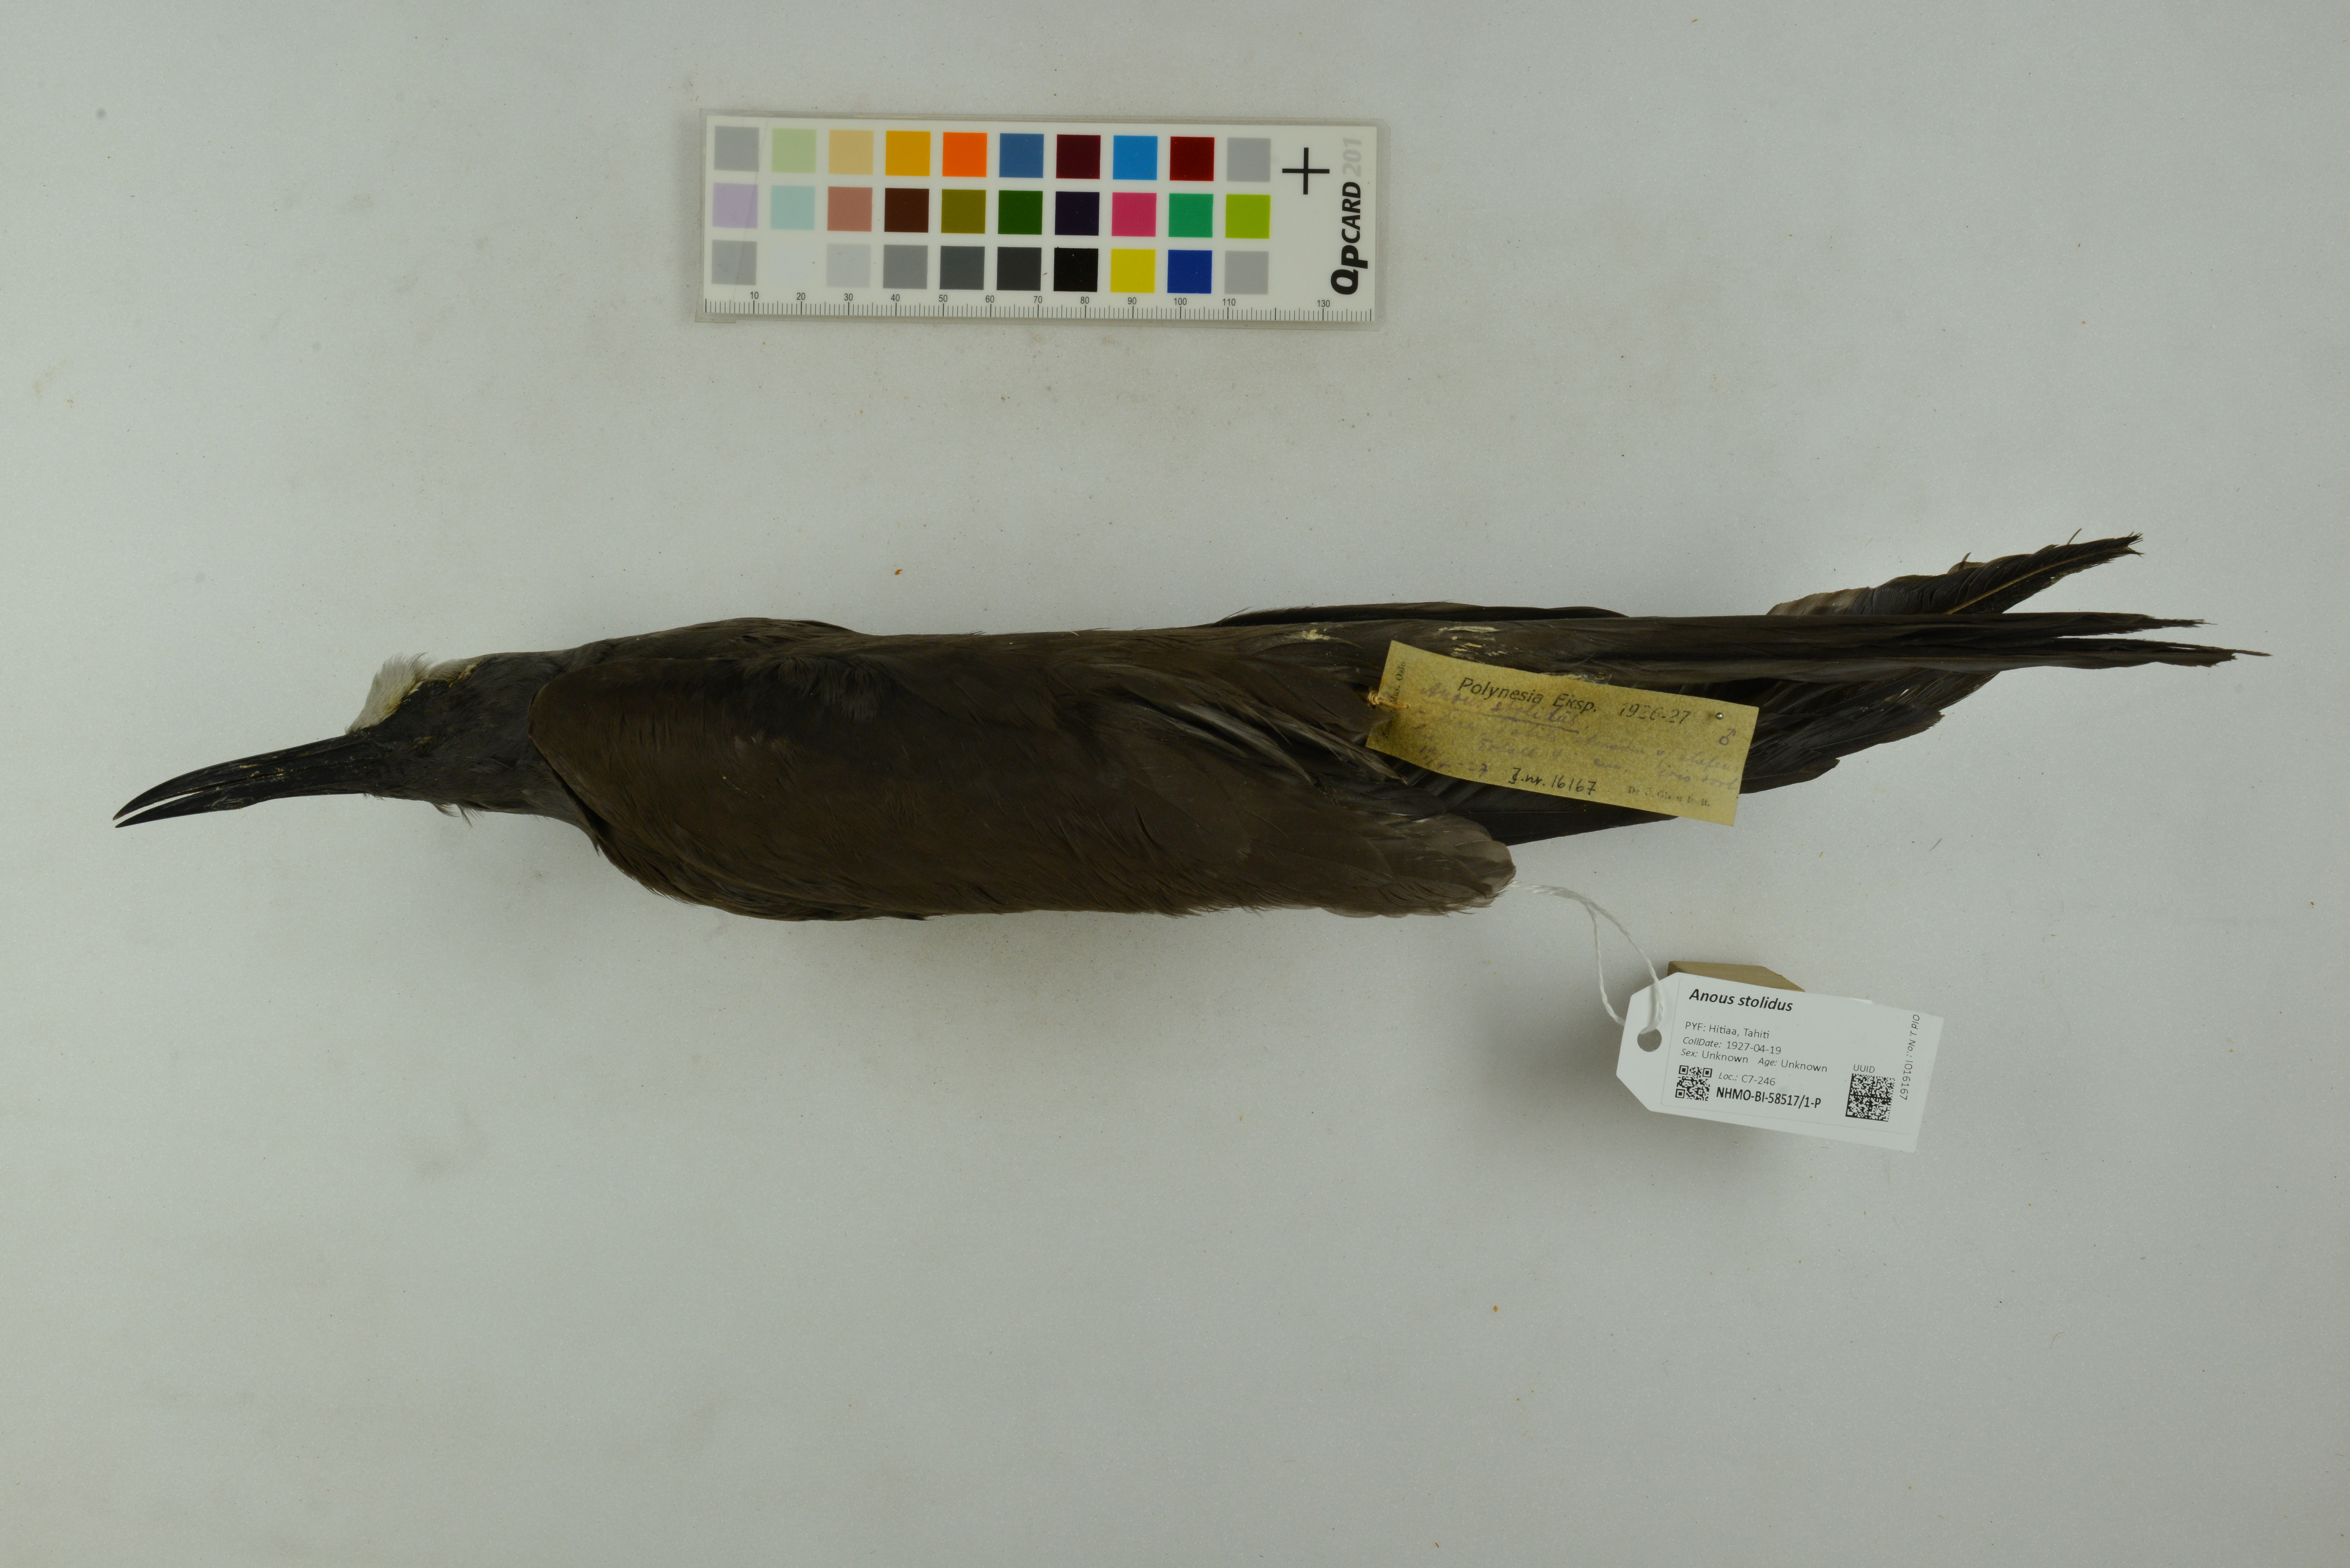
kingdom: Animalia
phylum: Chordata
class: Aves
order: Charadriiformes
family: Laridae
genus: Anous
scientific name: Anous stolidus
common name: Brown noddy
